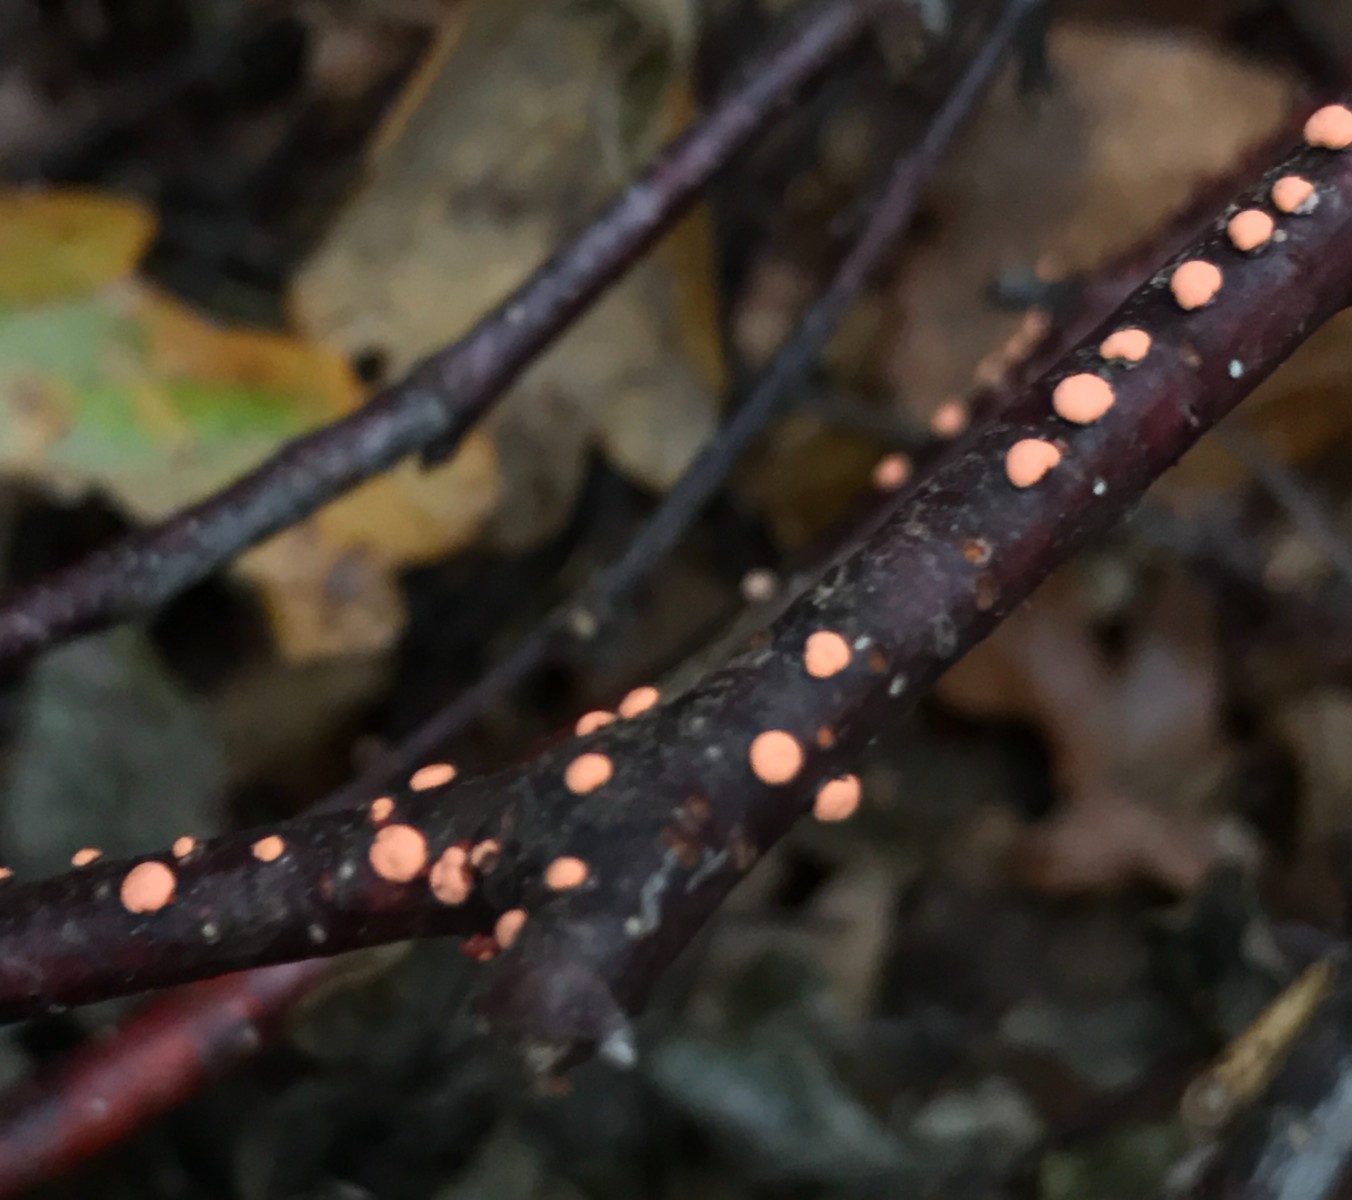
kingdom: Fungi
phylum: Ascomycota
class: Sordariomycetes
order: Hypocreales
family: Nectriaceae
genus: Nectria
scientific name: Nectria cinnabarina
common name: almindelig cinnobersvamp
